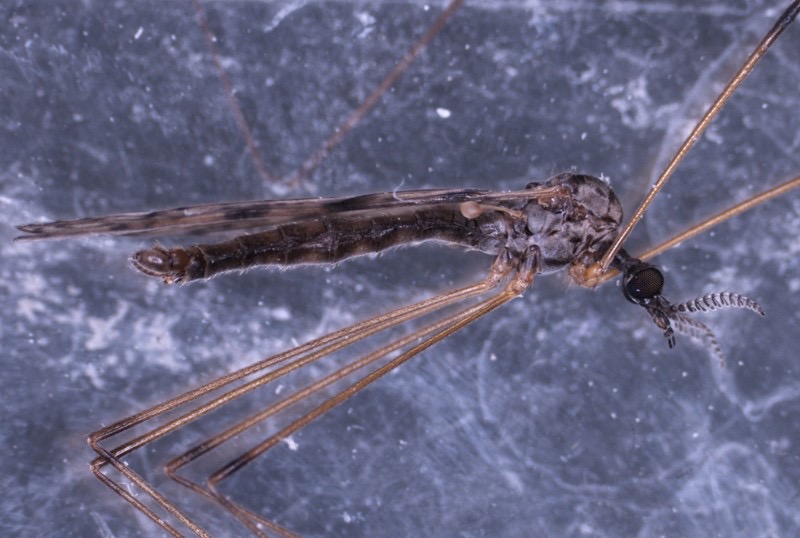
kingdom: Animalia
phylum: Arthropoda
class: Insecta
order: Diptera
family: Limoniidae
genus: Rhipidia
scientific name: Rhipidia maculata
